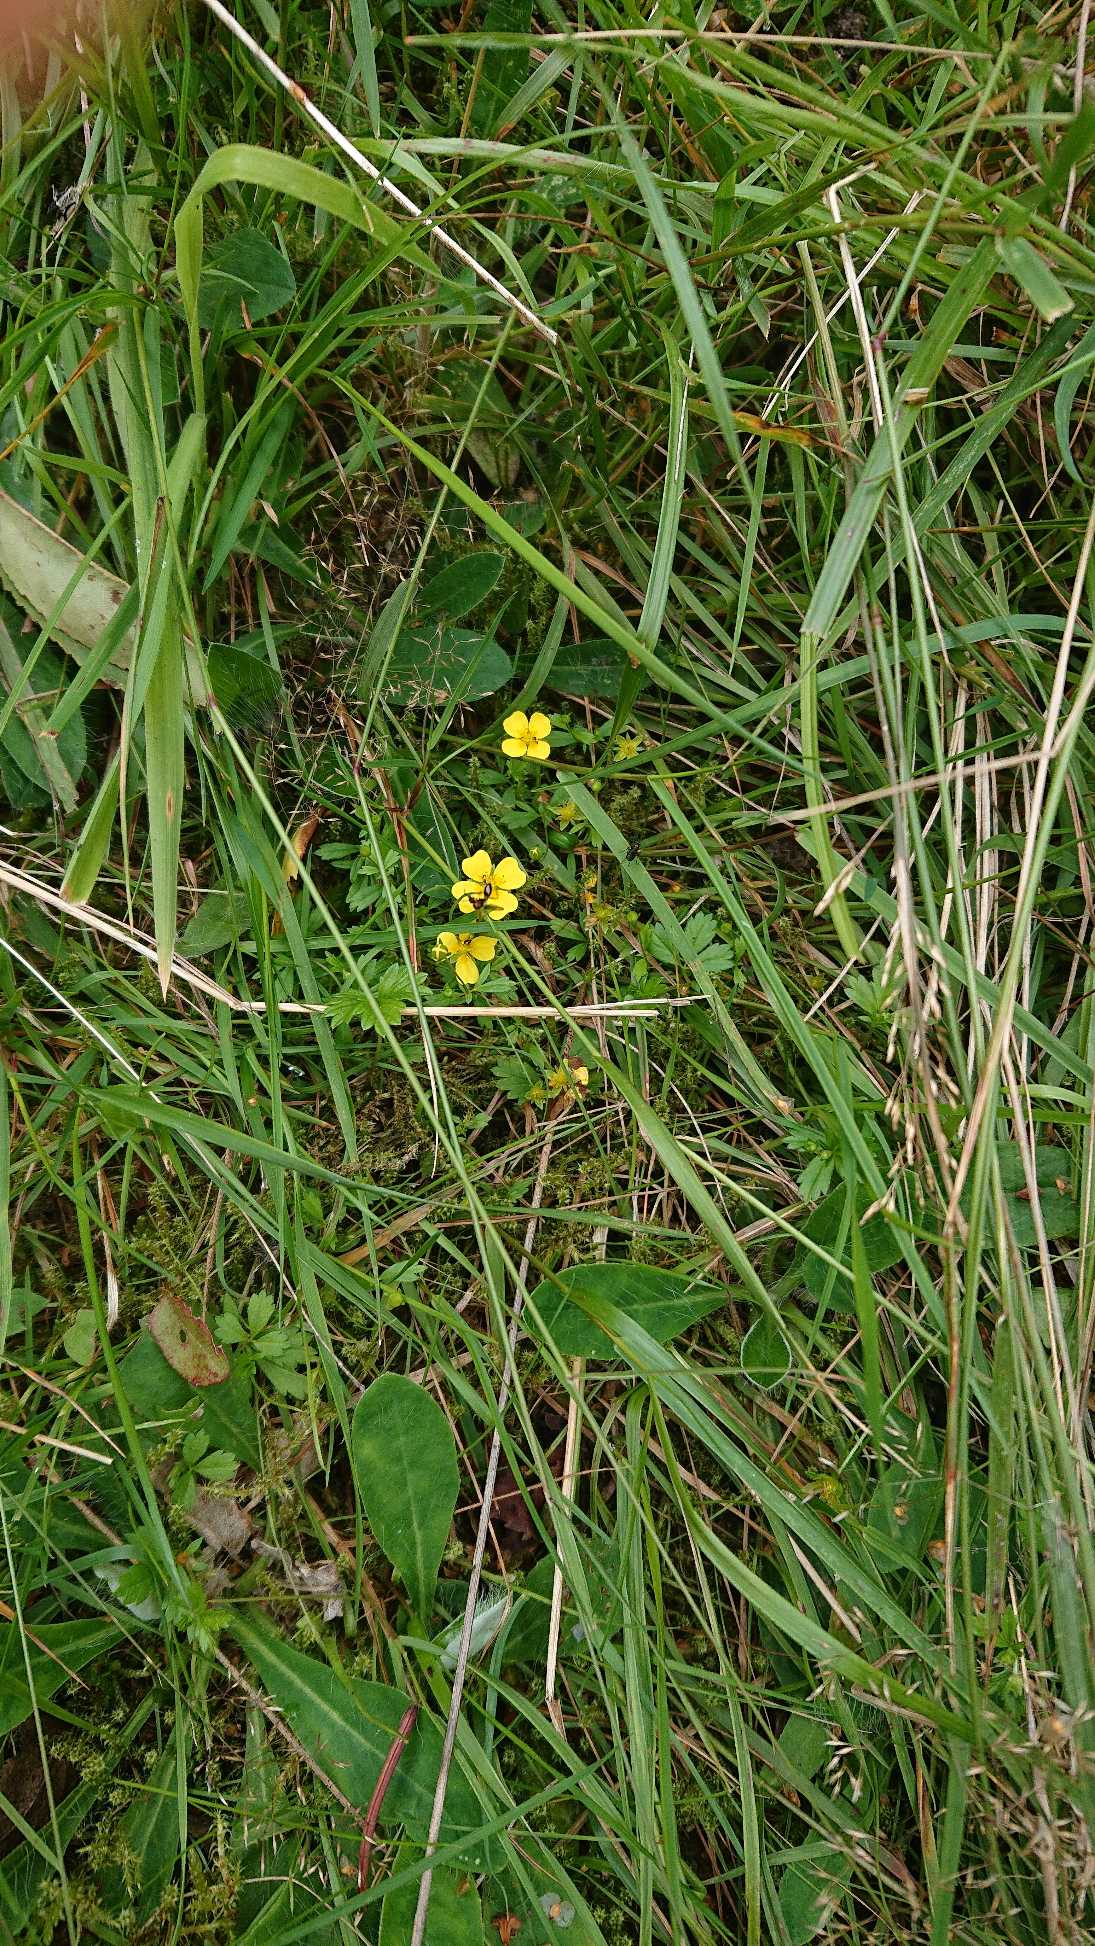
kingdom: Plantae
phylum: Tracheophyta
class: Magnoliopsida
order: Rosales
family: Rosaceae
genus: Potentilla
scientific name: Potentilla erecta
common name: Tormentil
